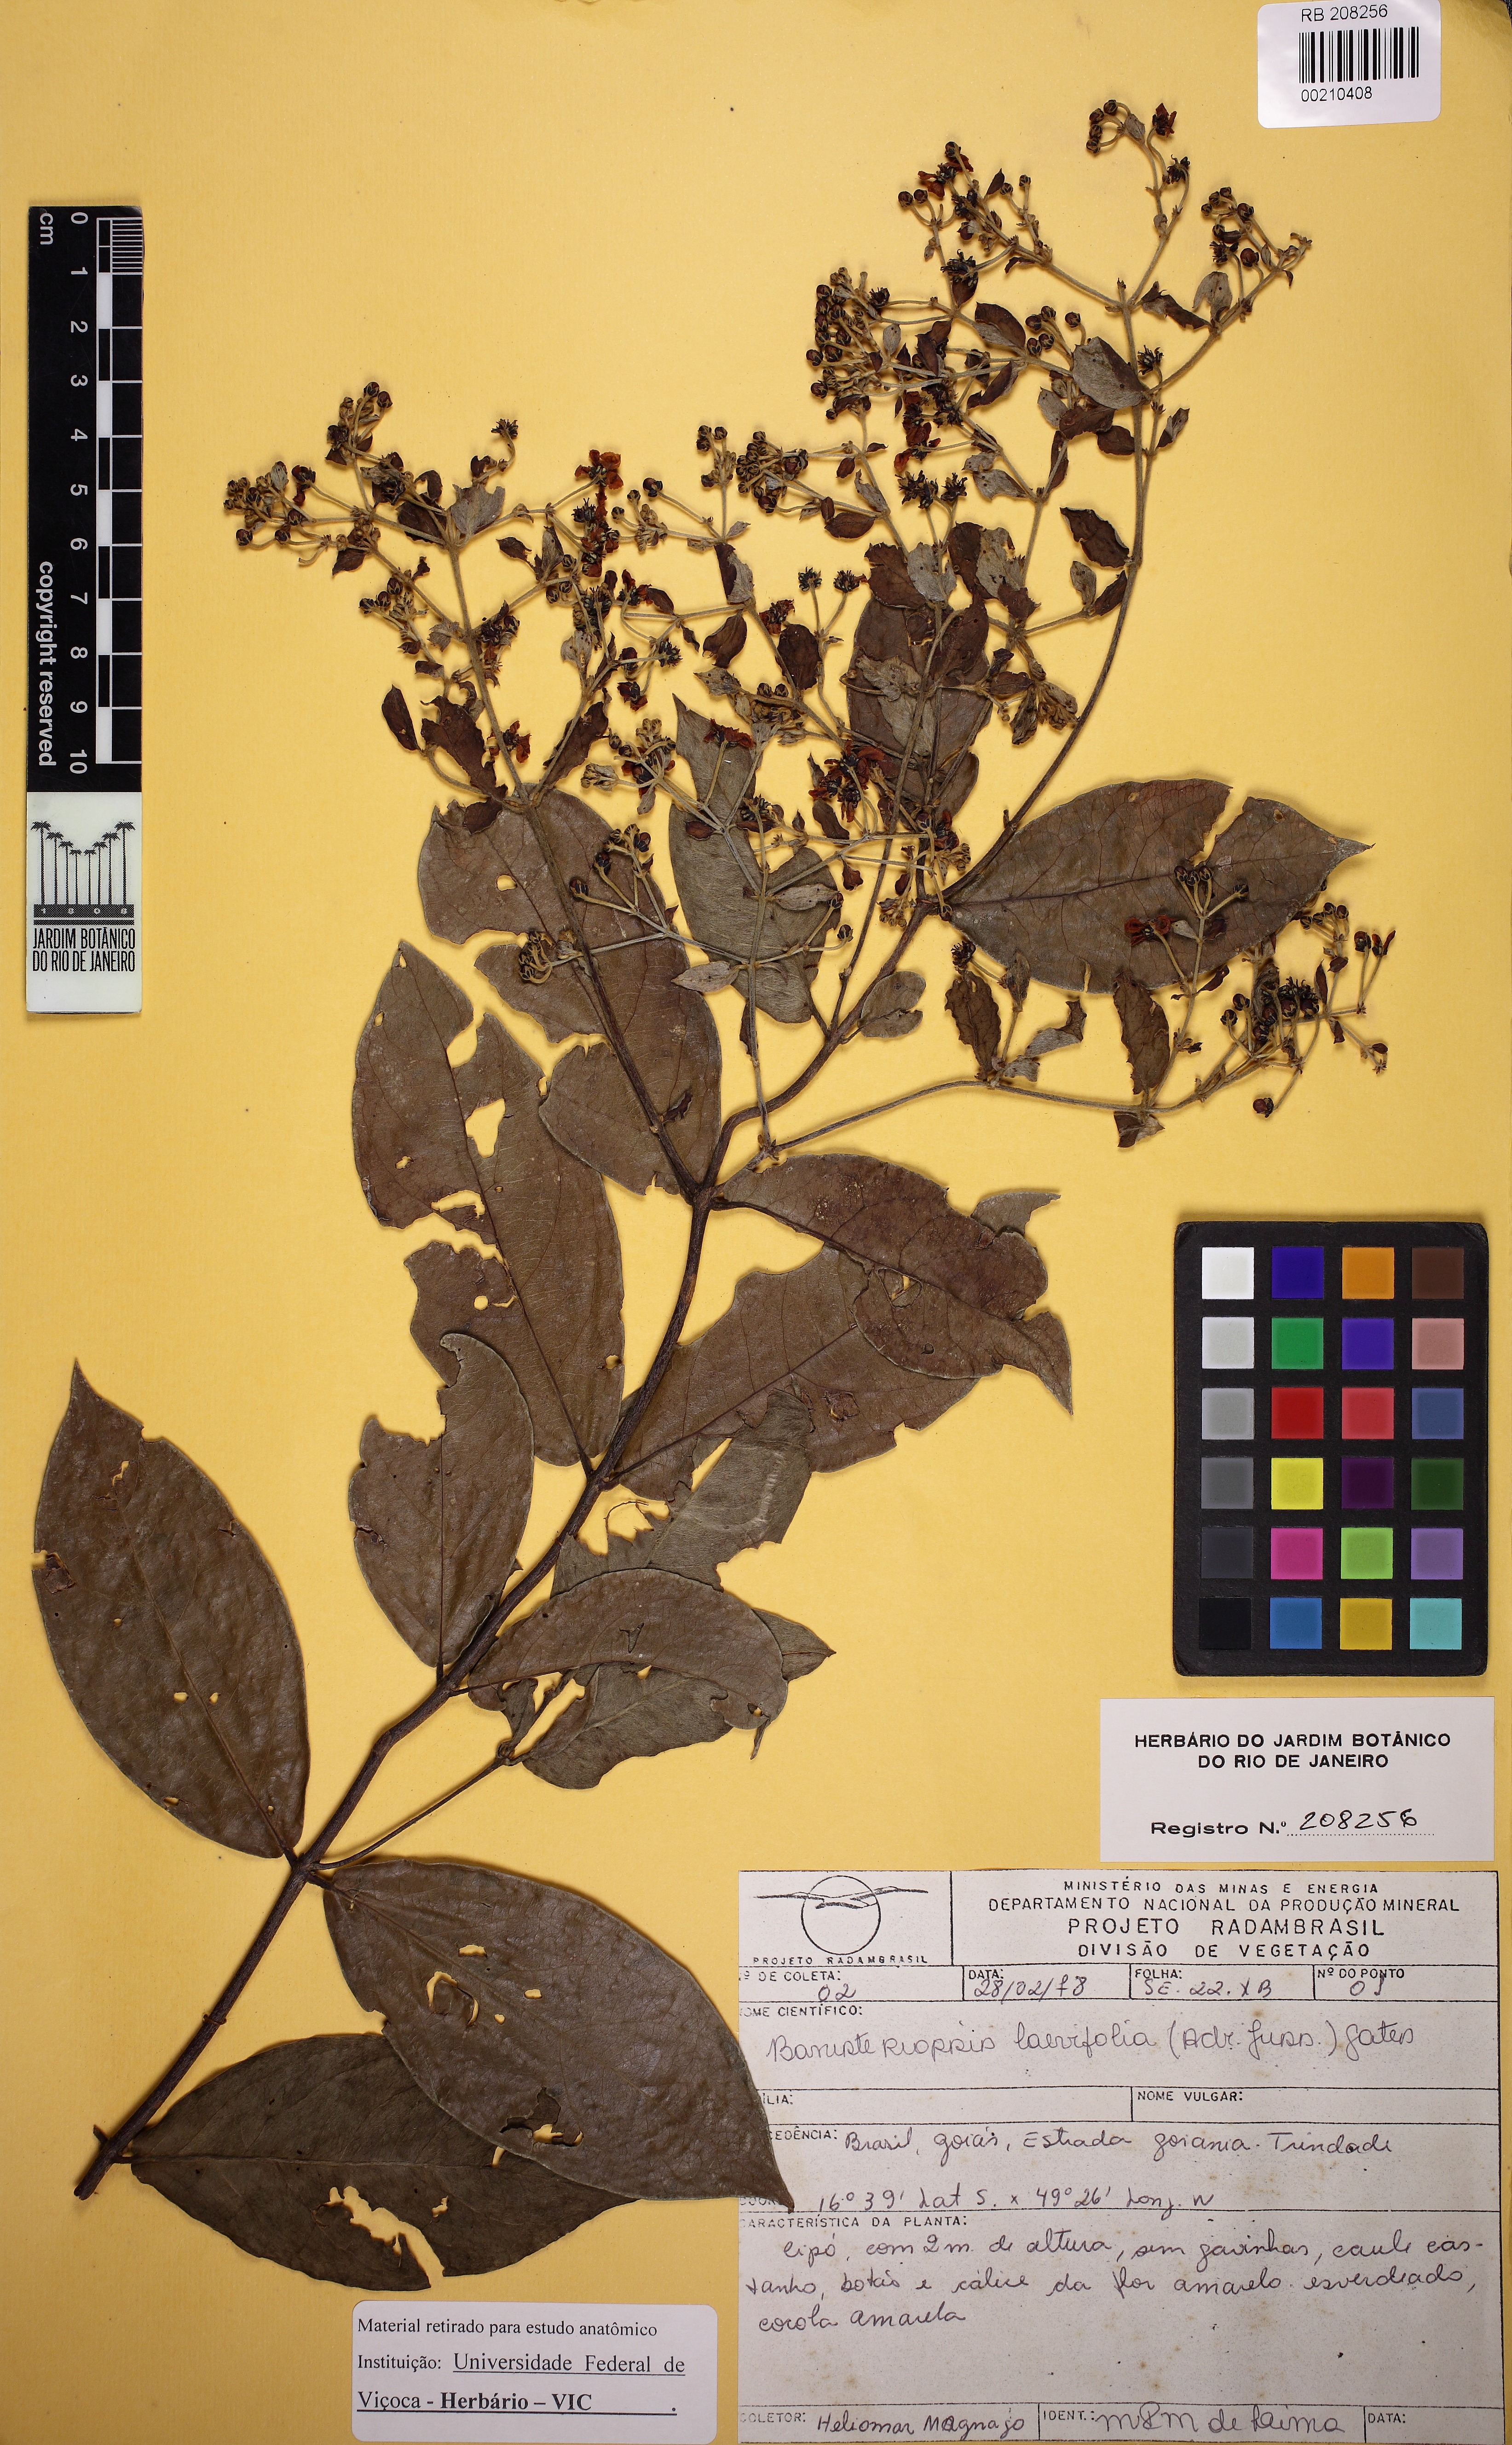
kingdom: Plantae
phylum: Tracheophyta
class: Magnoliopsida
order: Malpighiales
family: Malpighiaceae
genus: Banisteriopsis
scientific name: Banisteriopsis laevifolia
